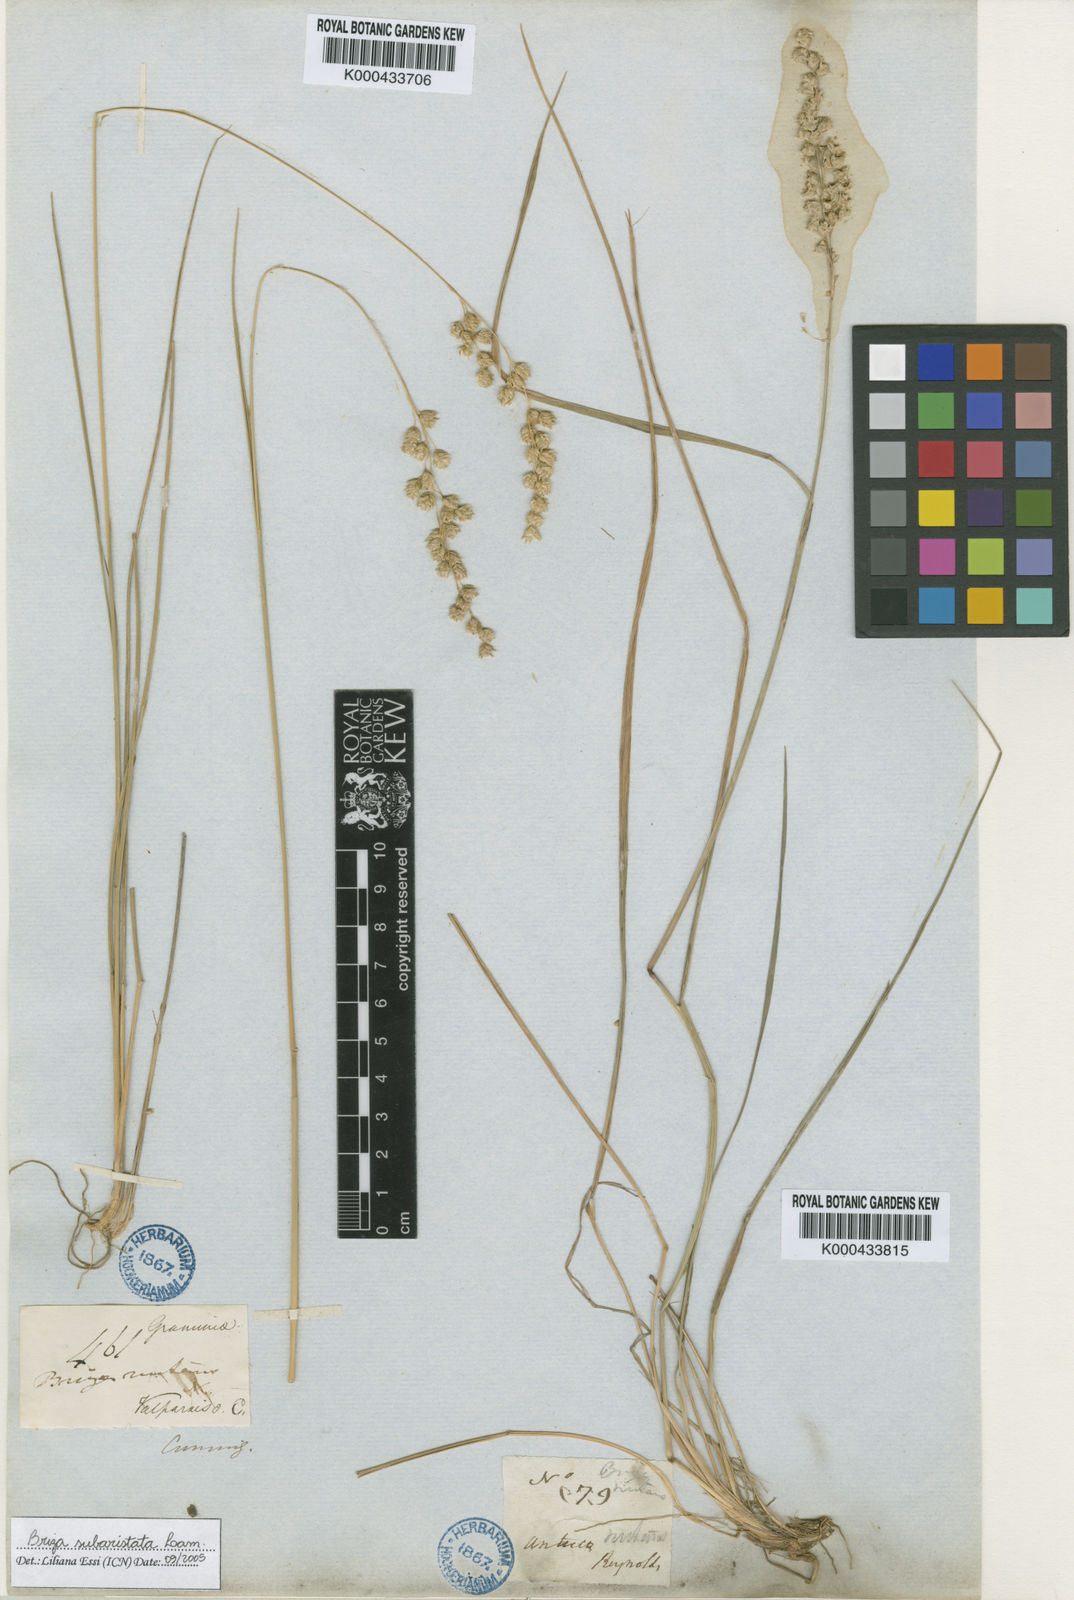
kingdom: Plantae
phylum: Tracheophyta
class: Liliopsida
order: Poales
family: Poaceae
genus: Chascolytrum
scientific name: Chascolytrum subaristatum
